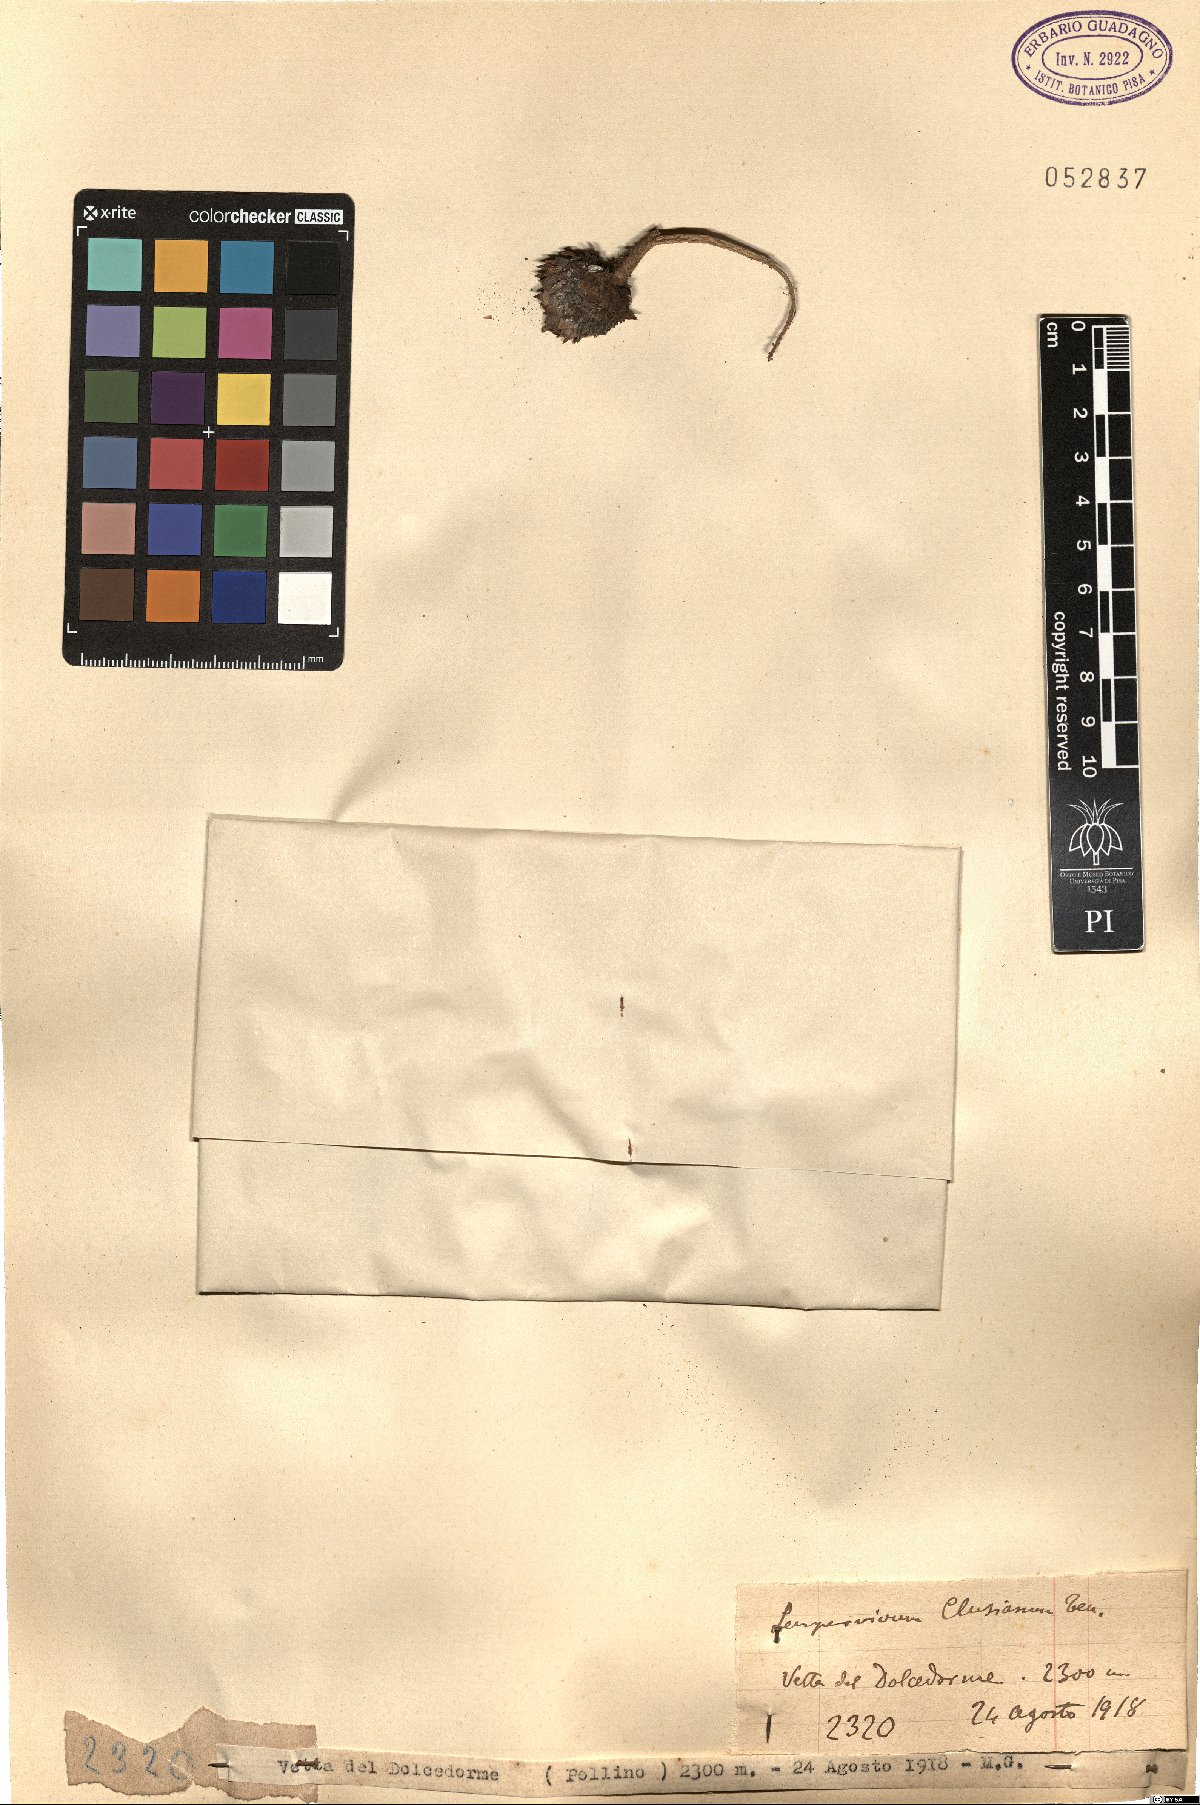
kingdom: Plantae
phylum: Tracheophyta
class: Magnoliopsida
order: Saxifragales
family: Crassulaceae
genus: Sempervivum
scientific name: Sempervivum tectorum
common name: House-leek
